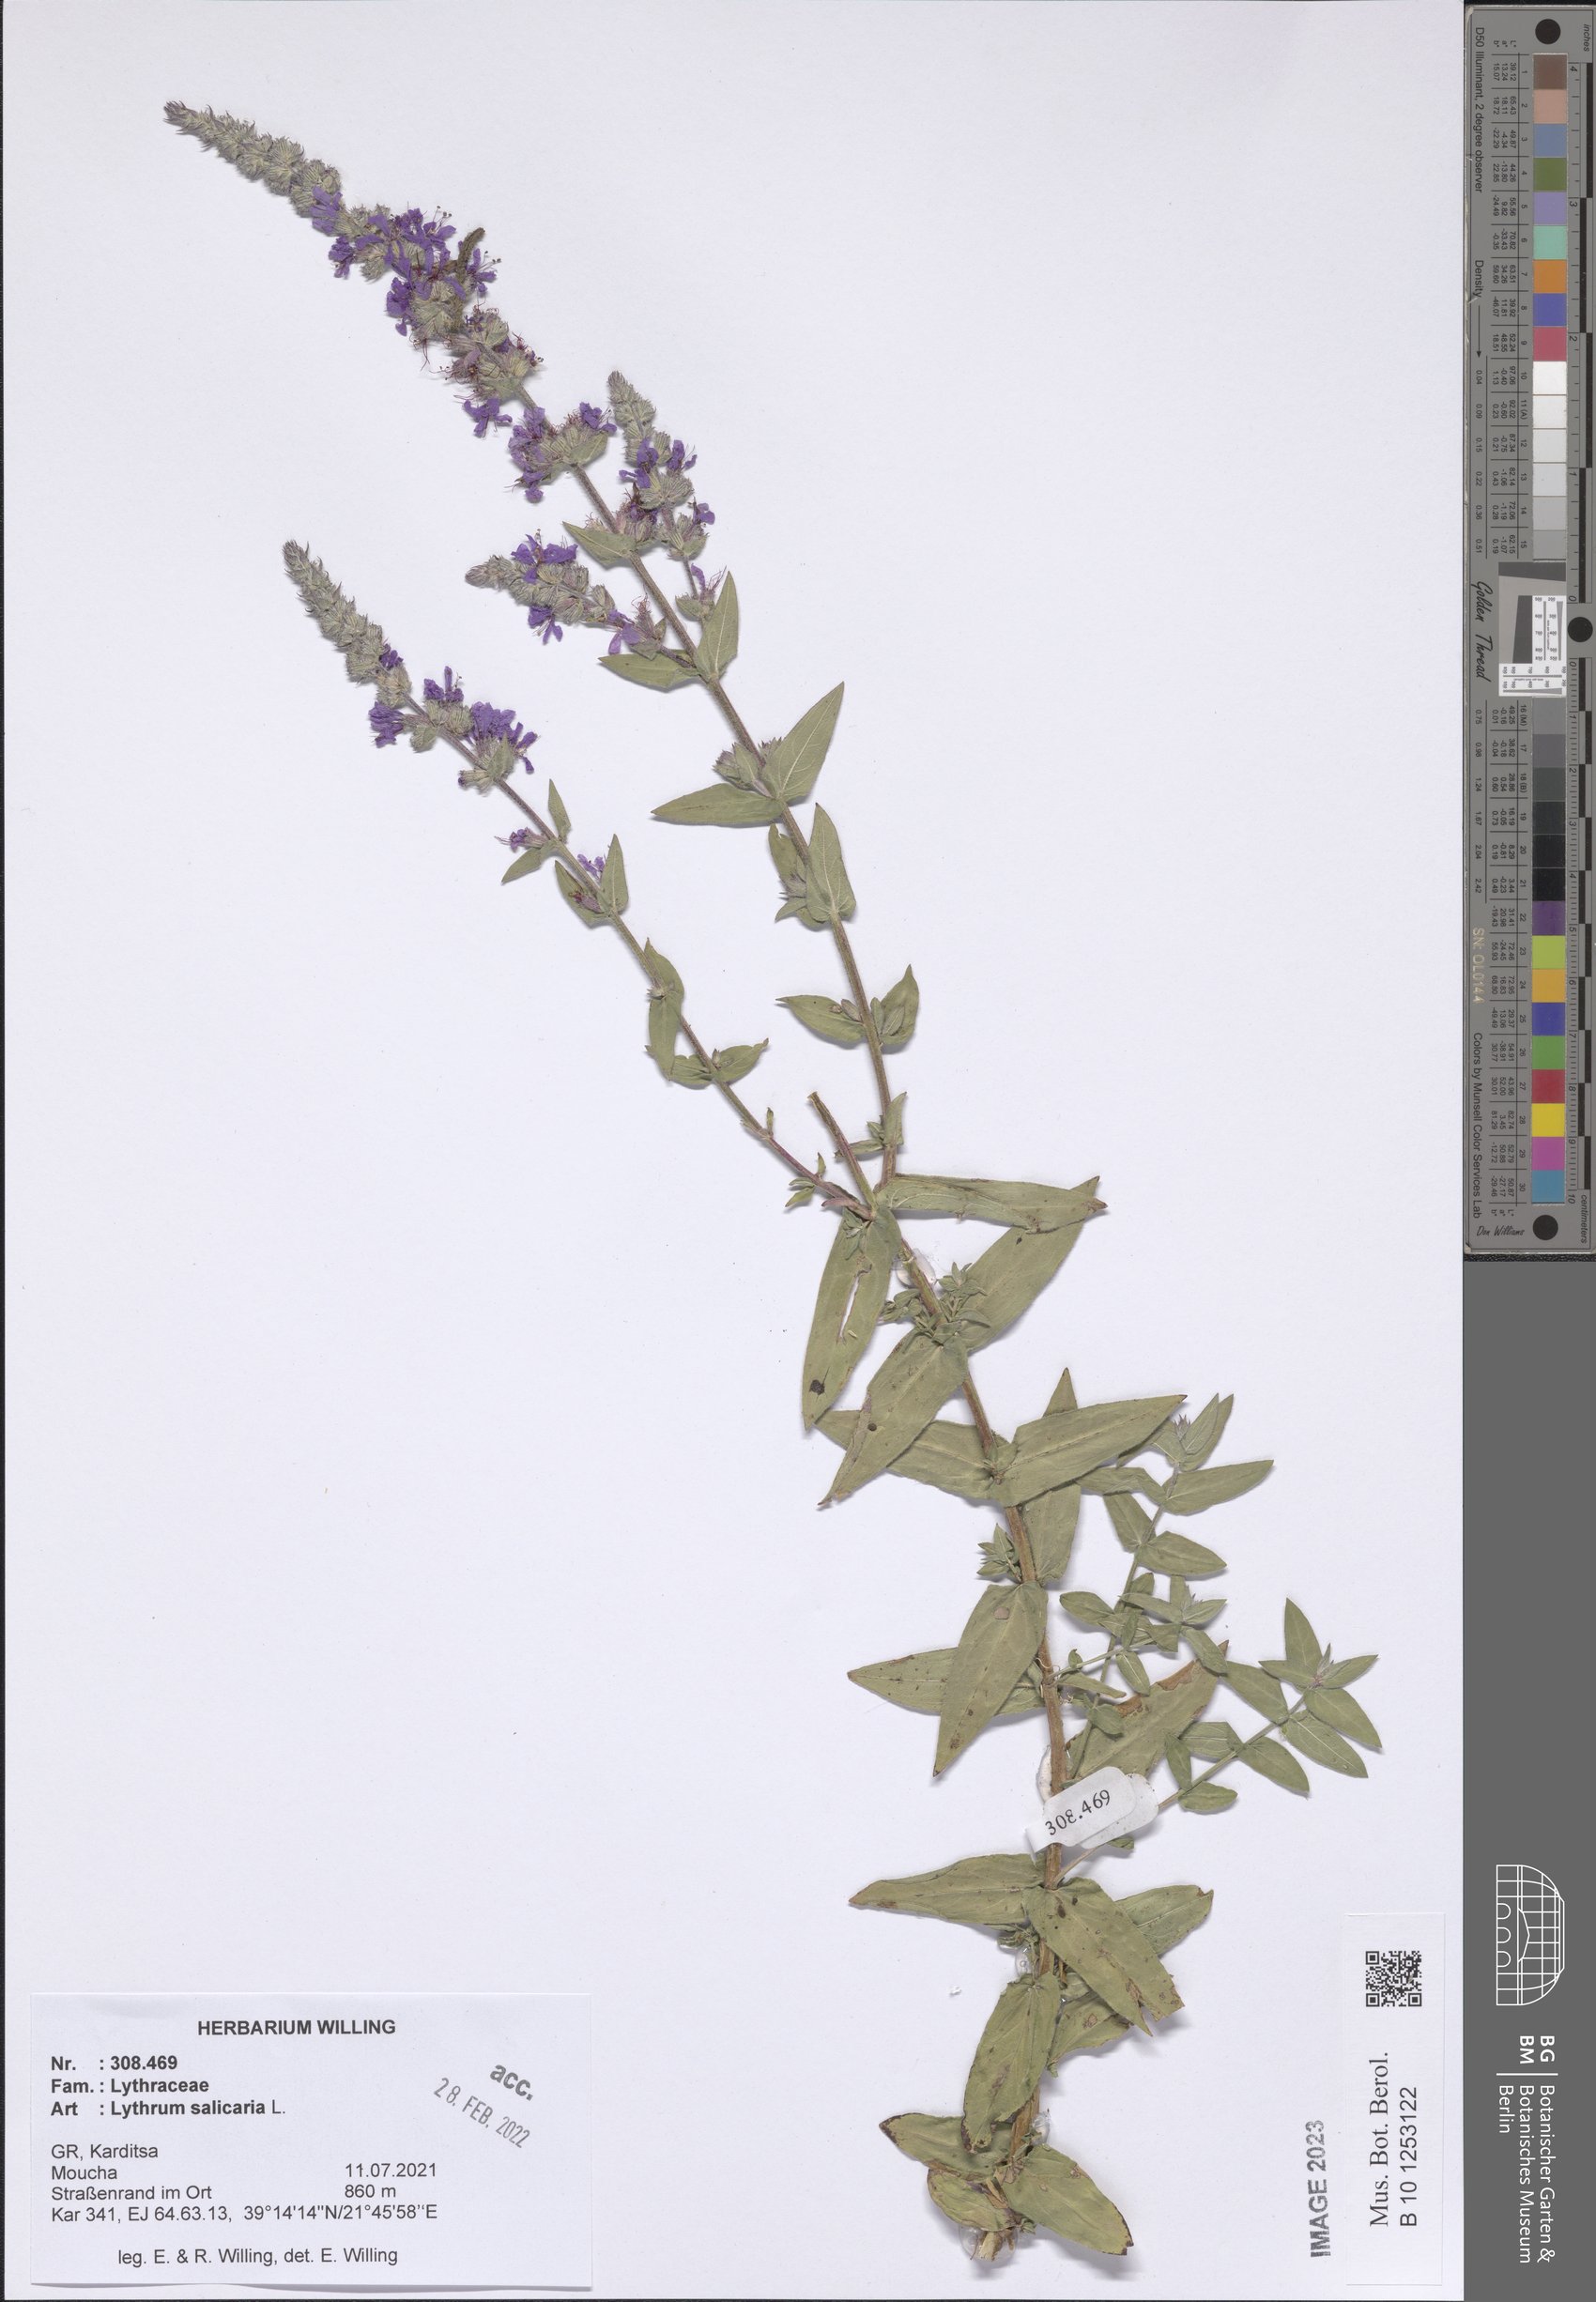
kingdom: Plantae
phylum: Tracheophyta
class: Magnoliopsida
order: Myrtales
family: Lythraceae
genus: Lythrum
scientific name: Lythrum salicaria
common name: Purple loosestrife
